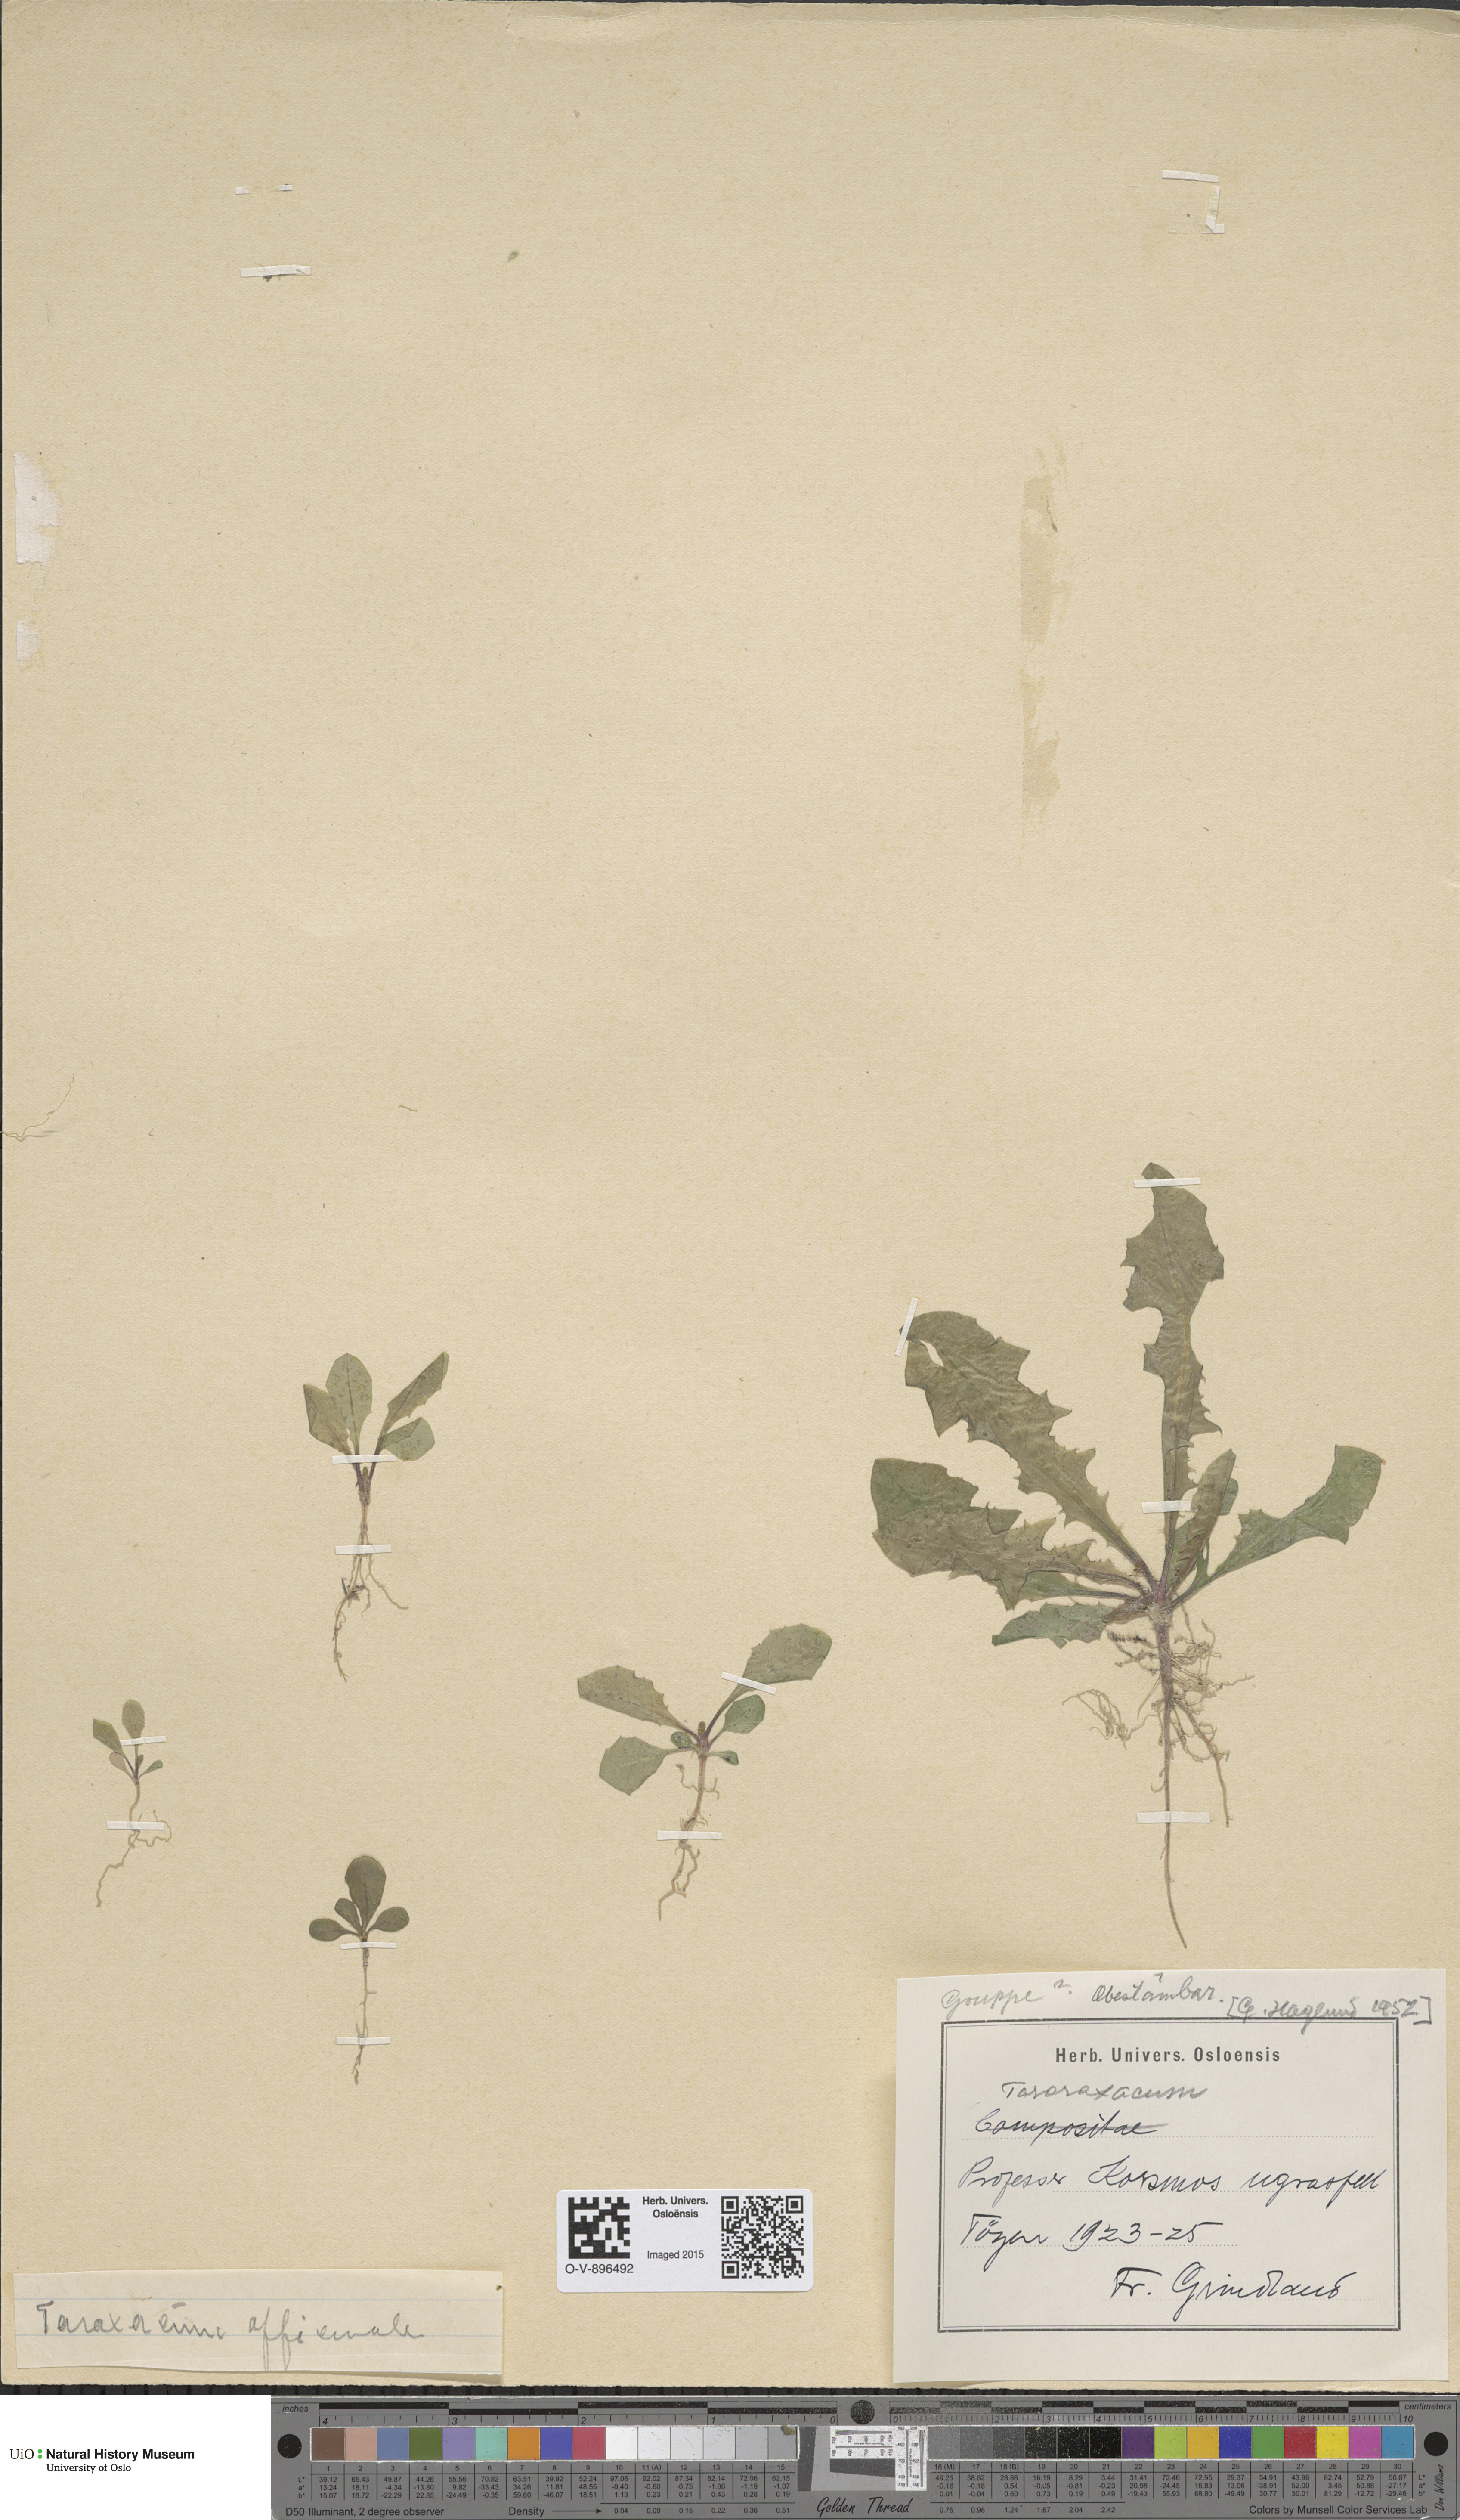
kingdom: Plantae
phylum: Tracheophyta
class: Magnoliopsida
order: Asterales
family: Asteraceae
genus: Taraxacum
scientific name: Taraxacum officinale
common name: Common dandelion
